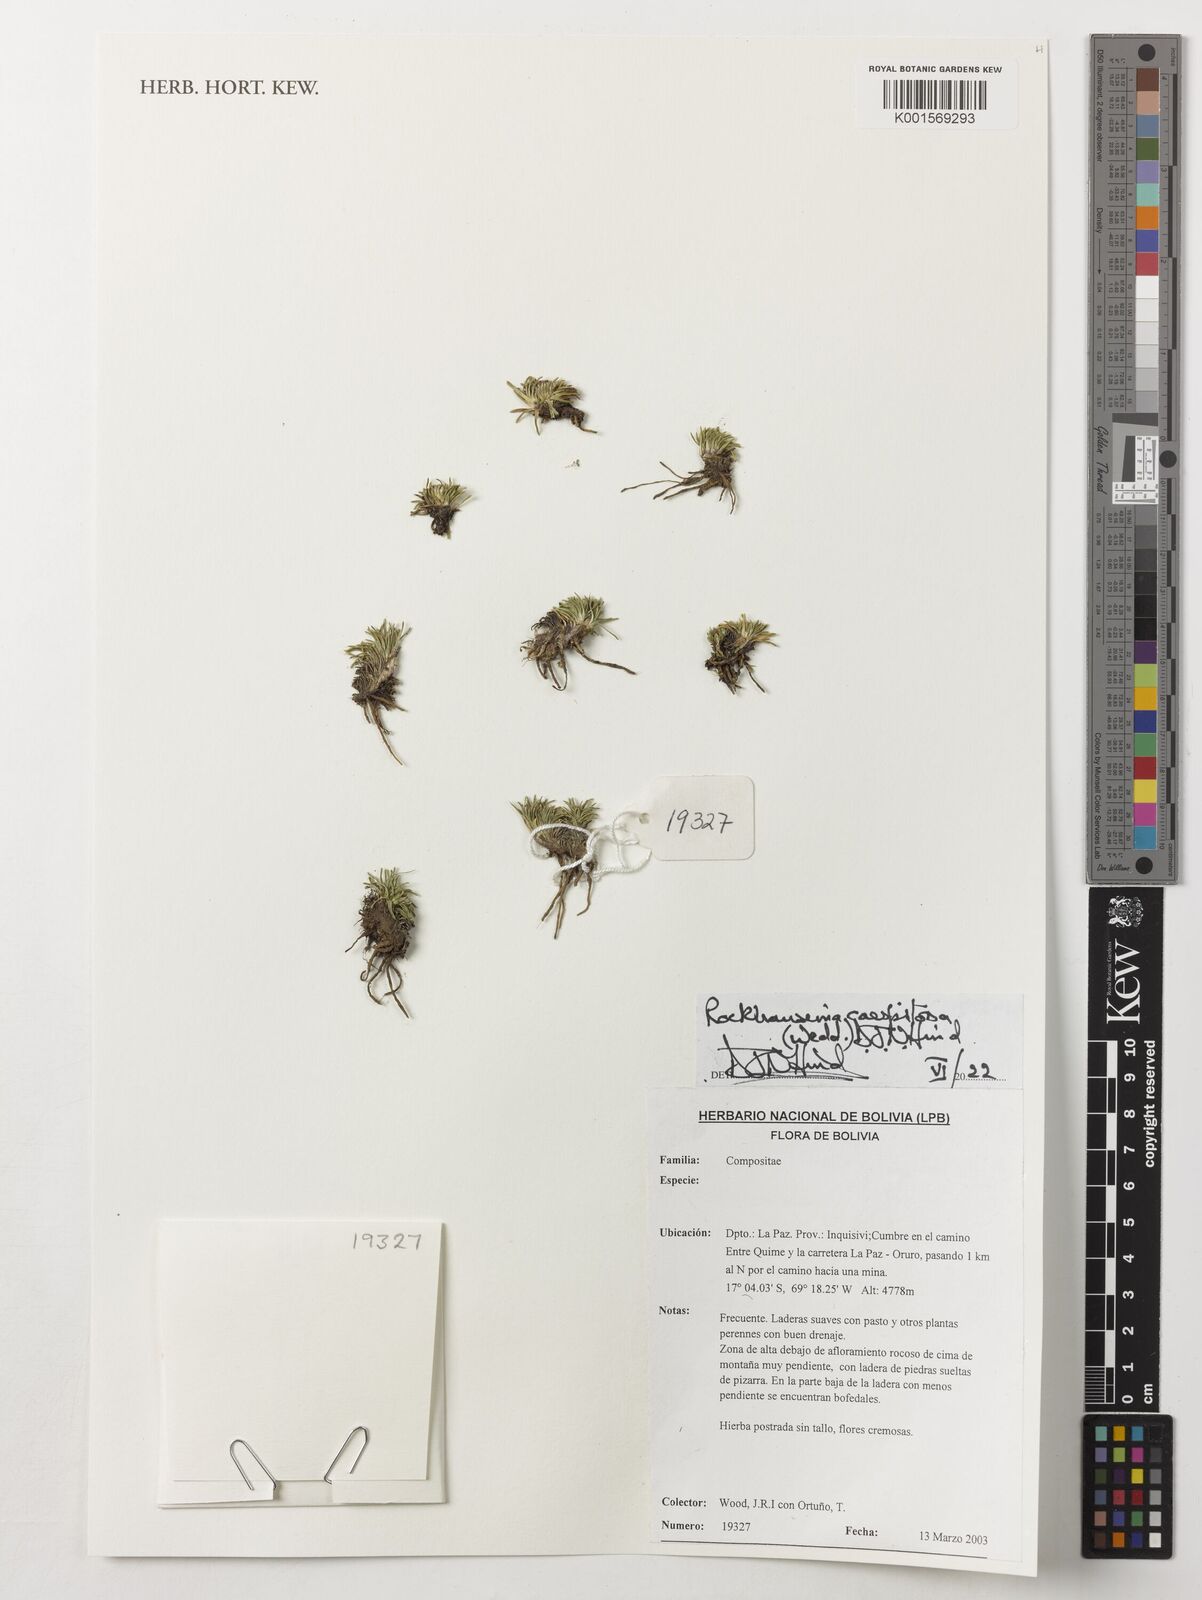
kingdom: Plantae
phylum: Tracheophyta
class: Magnoliopsida
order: Asterales
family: Asteraceae
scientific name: Asteraceae
